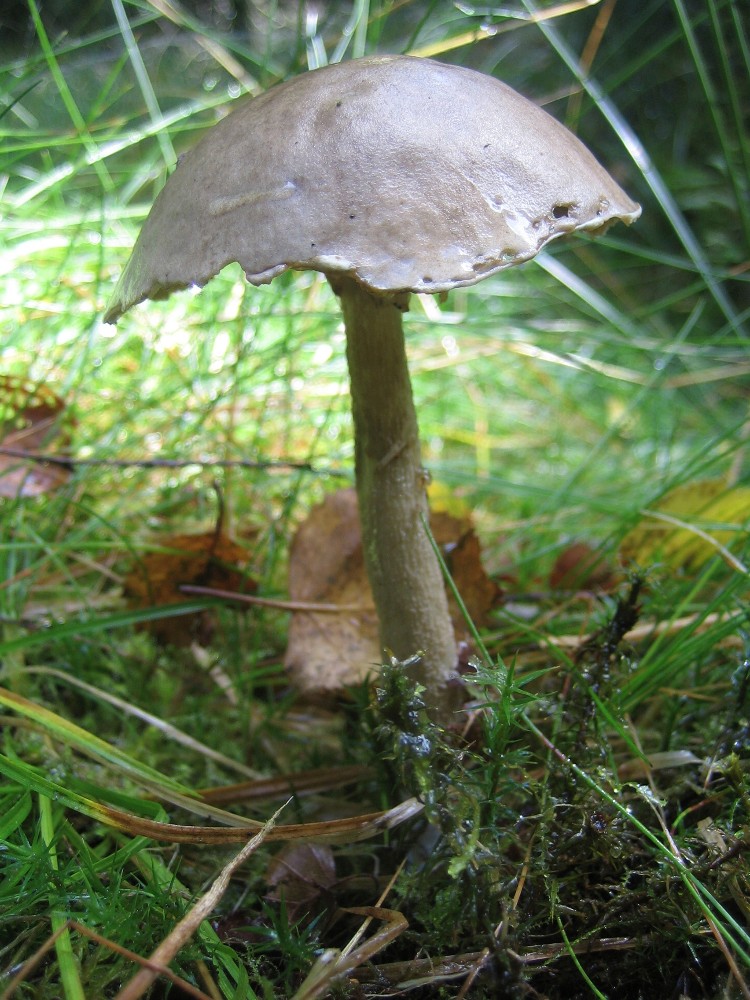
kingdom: Fungi
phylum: Basidiomycota
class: Agaricomycetes
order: Boletales
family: Boletaceae
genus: Leccinum
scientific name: Leccinum
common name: skælrørhat
